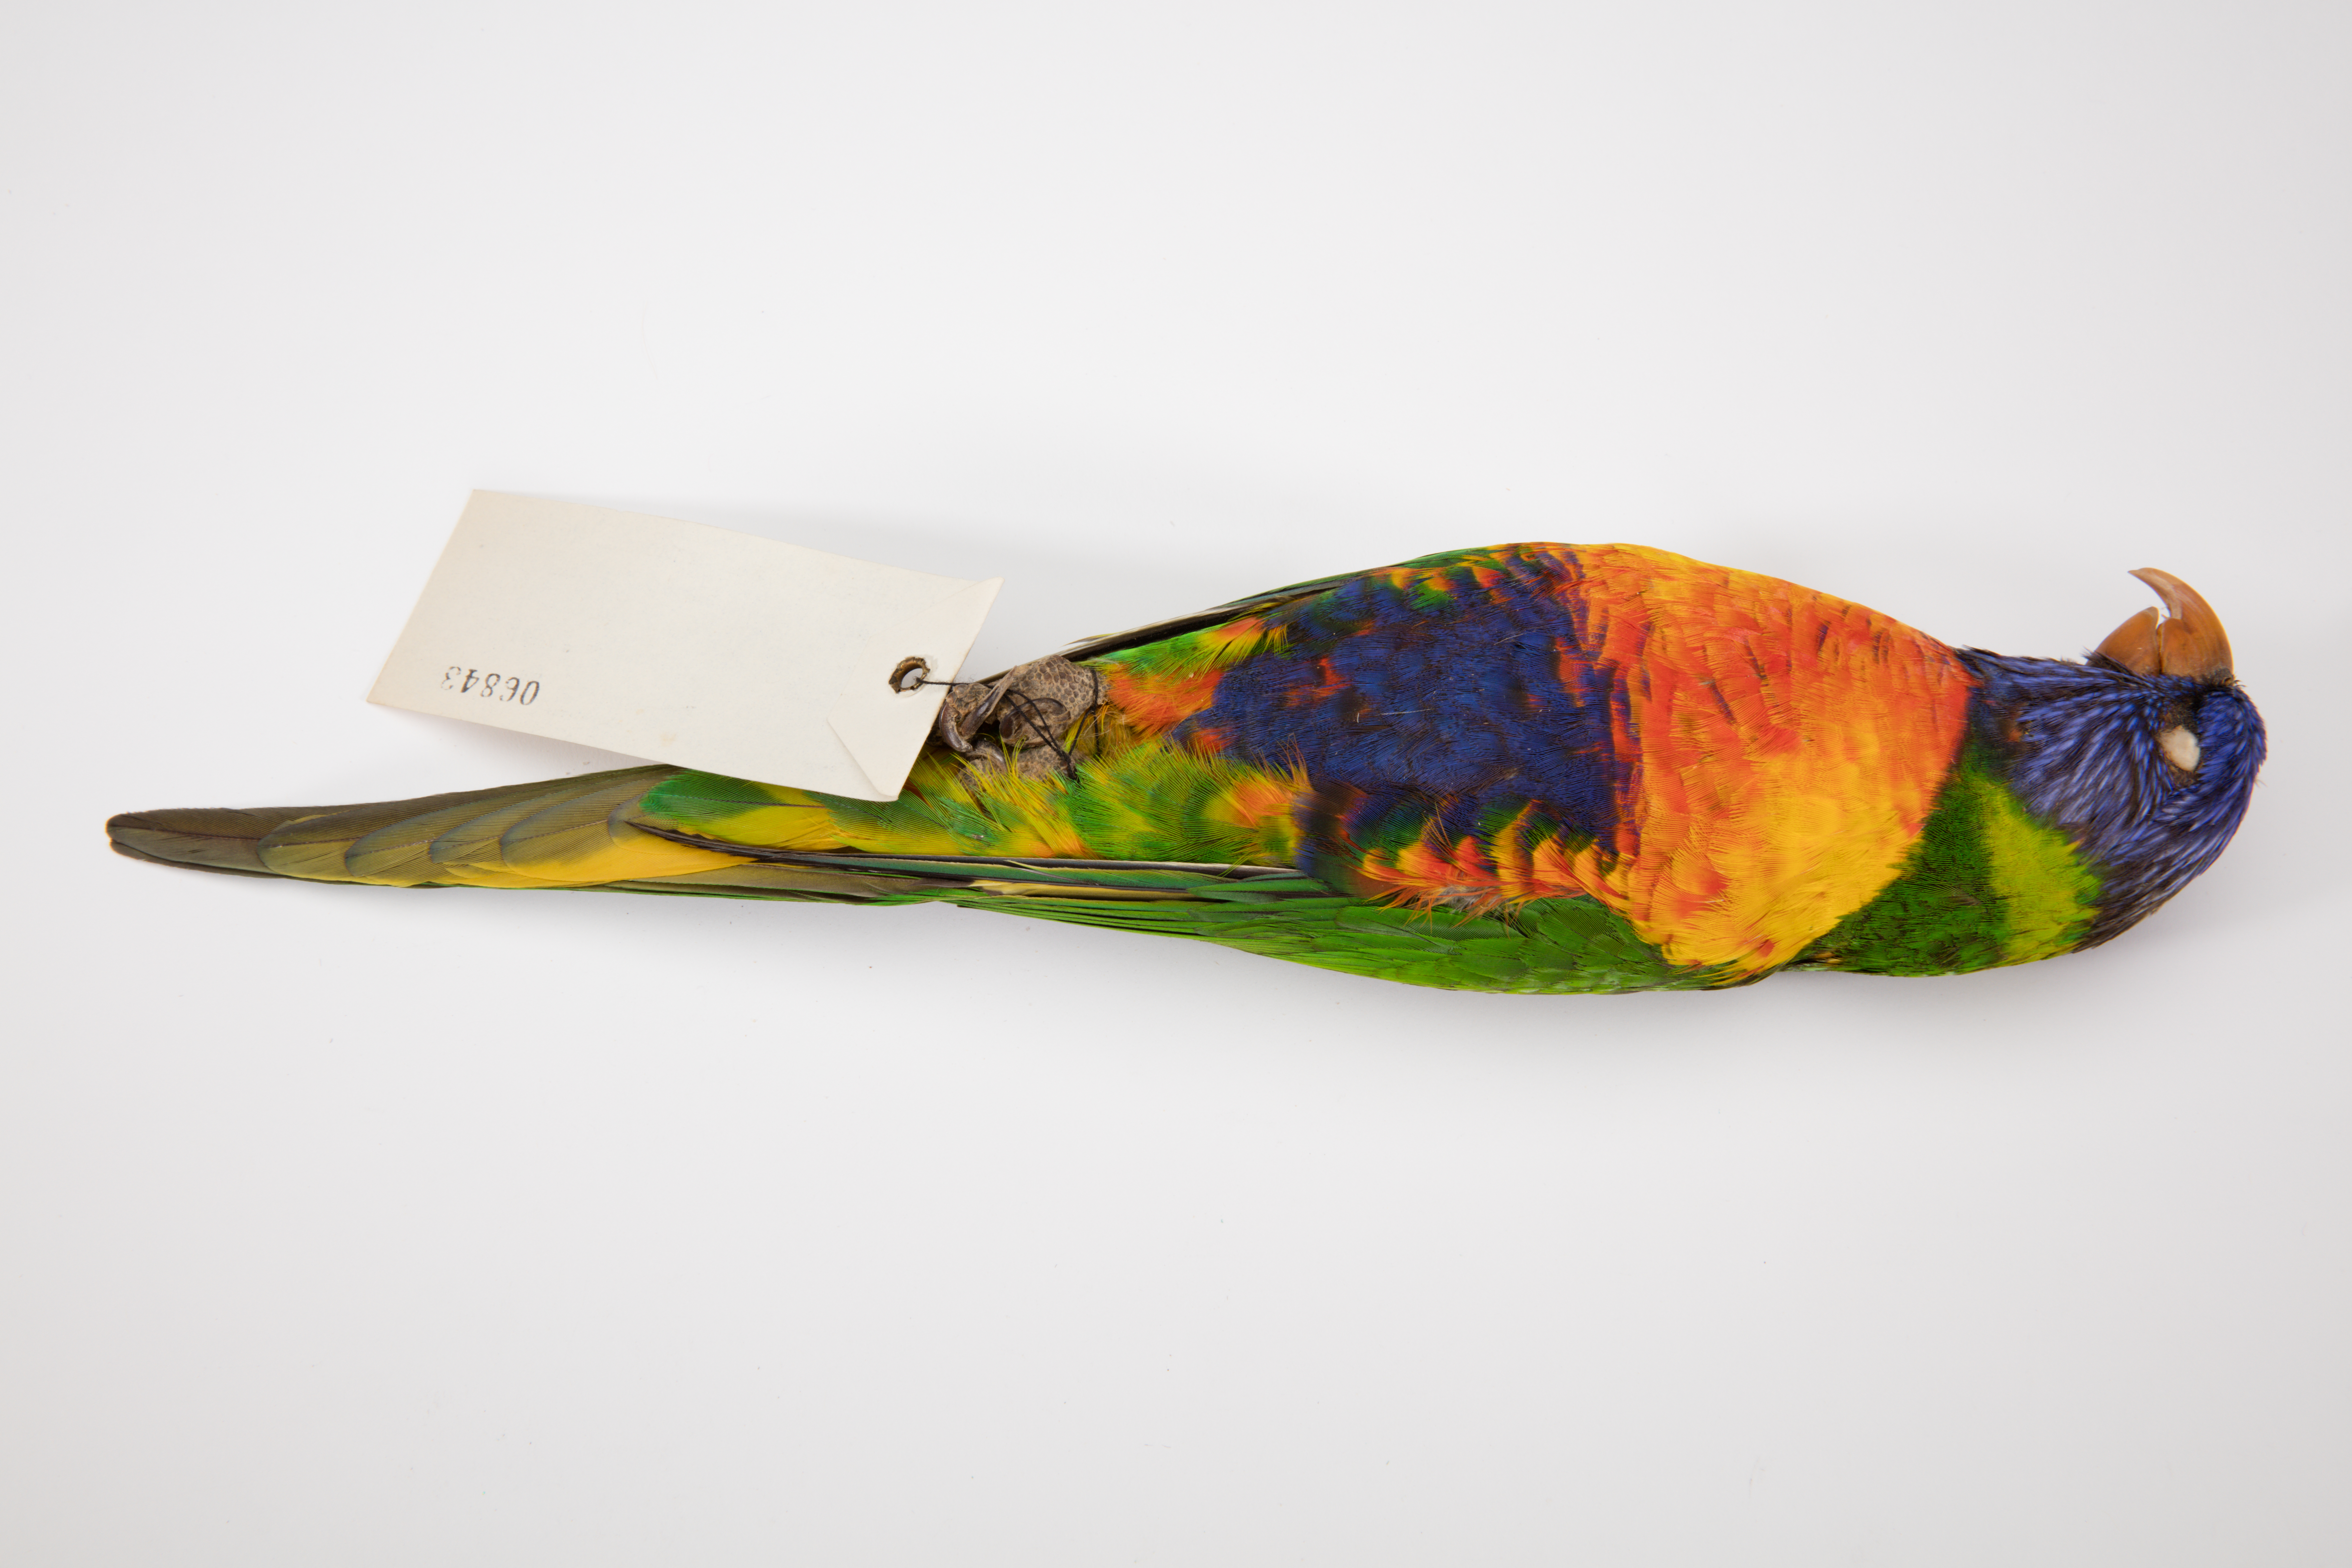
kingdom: Animalia
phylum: Chordata
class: Aves
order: Psittaciformes
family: Psittacidae
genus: Trichoglossus
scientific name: Trichoglossus haematodus
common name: Coconut lorikeet
